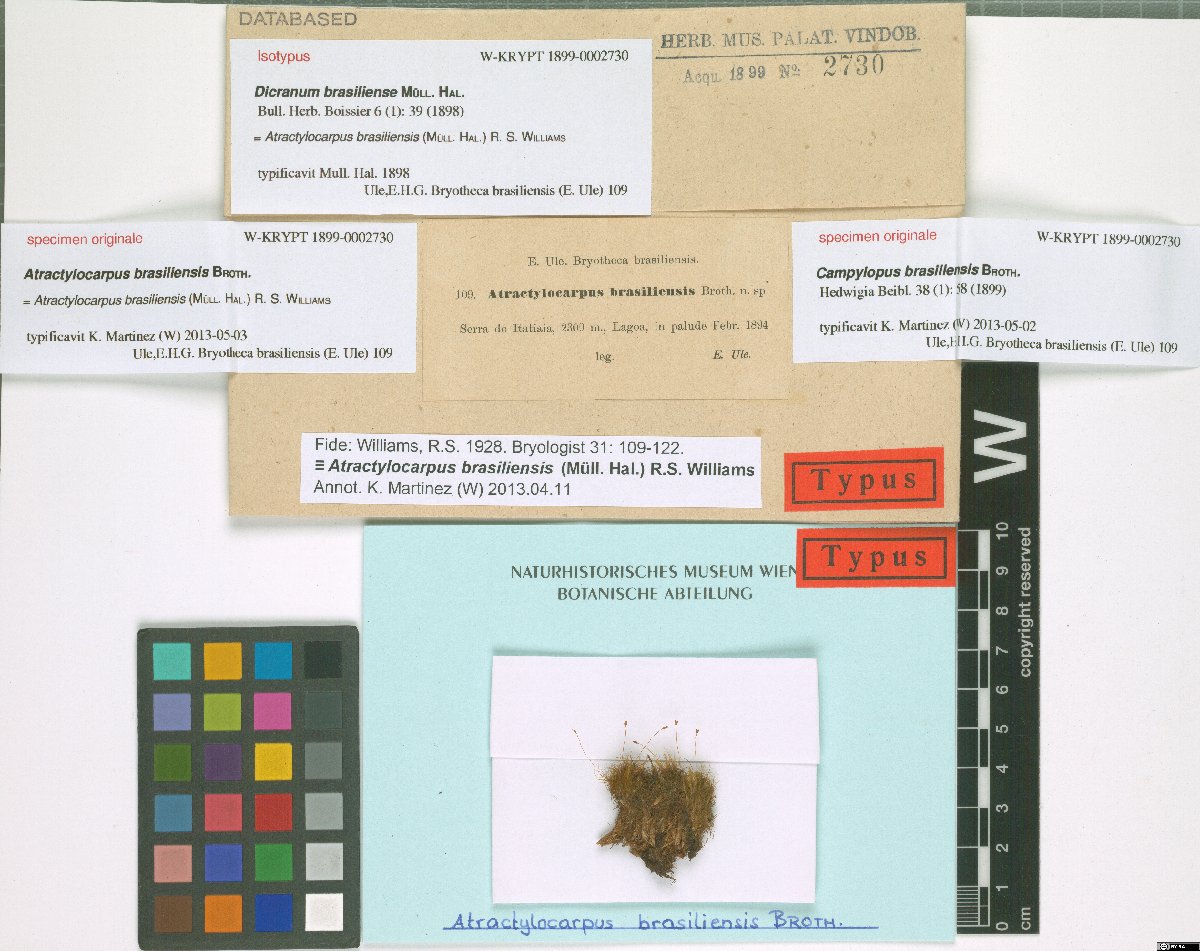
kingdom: Plantae
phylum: Bryophyta
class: Bryopsida
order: Dicranales
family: Leucobryaceae
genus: Atractylocarpus
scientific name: Atractylocarpus brasiliensis
